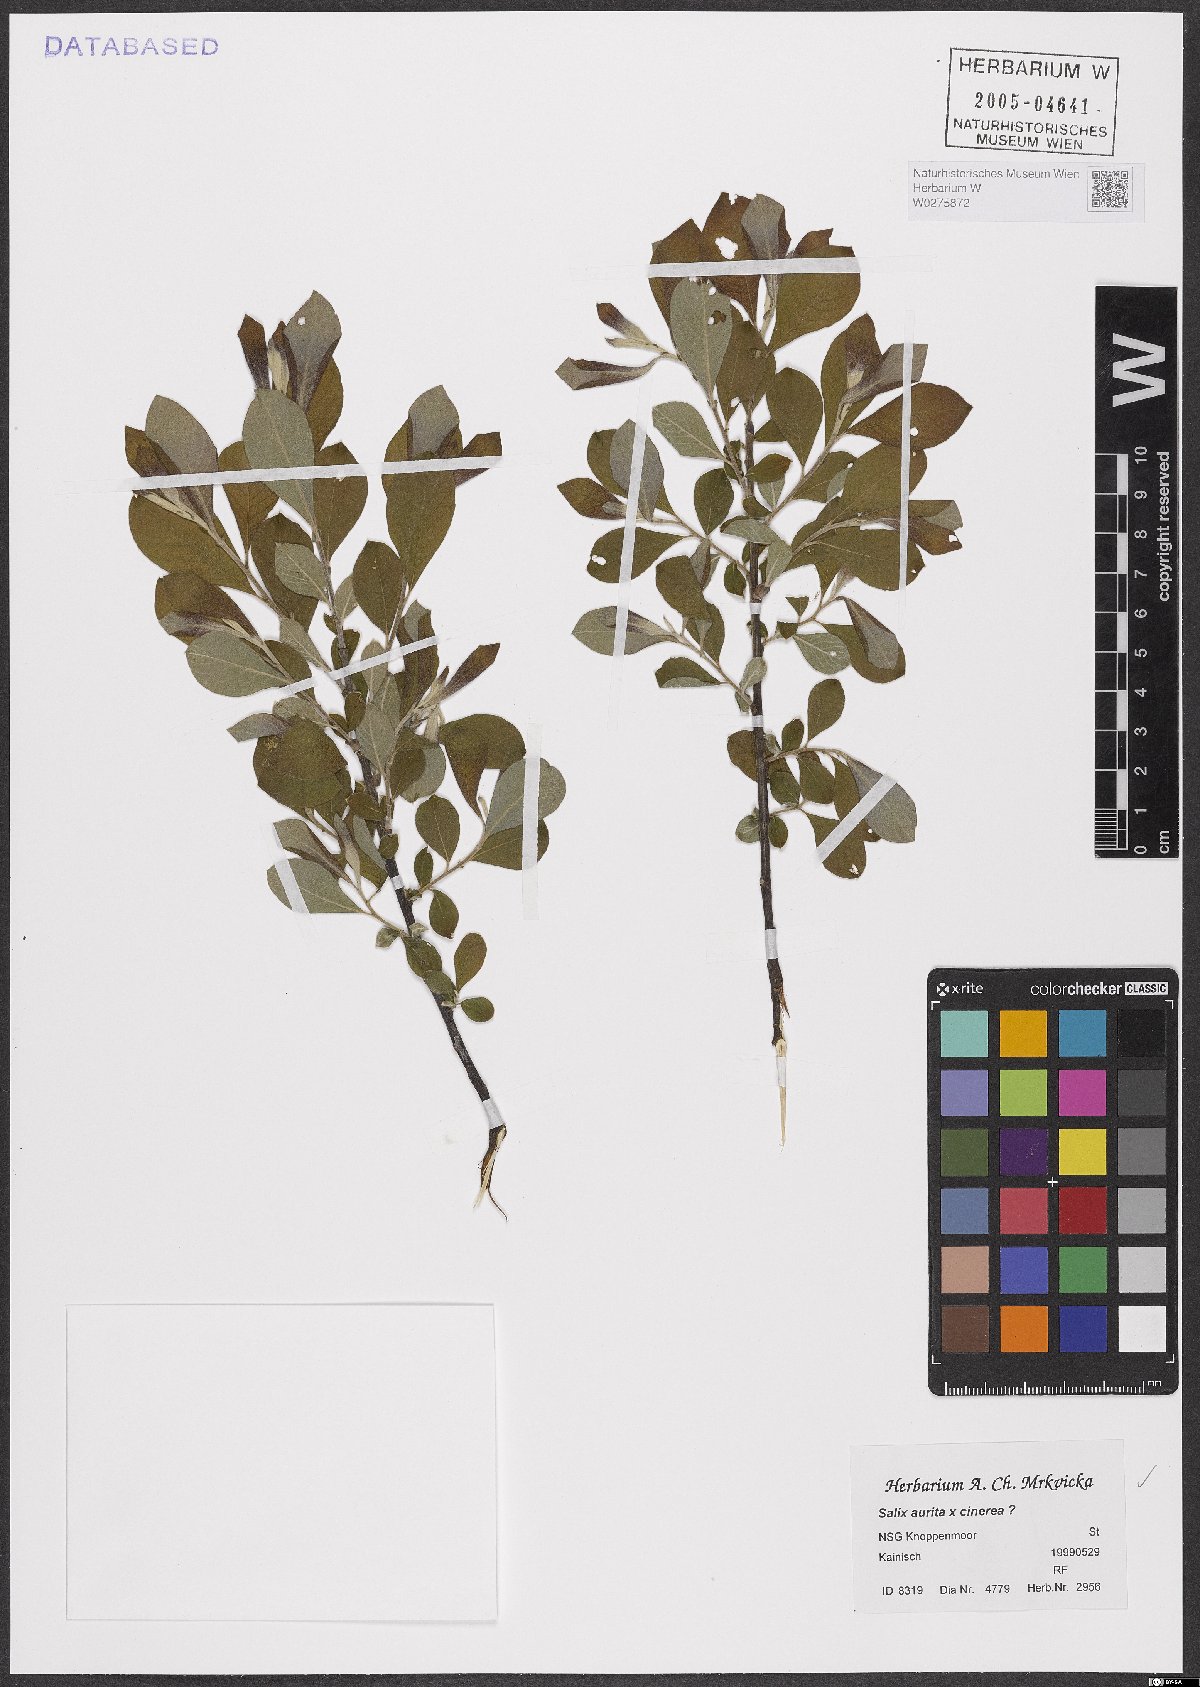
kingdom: Plantae
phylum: Tracheophyta
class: Magnoliopsida
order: Malpighiales
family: Salicaceae
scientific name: Salicaceae
